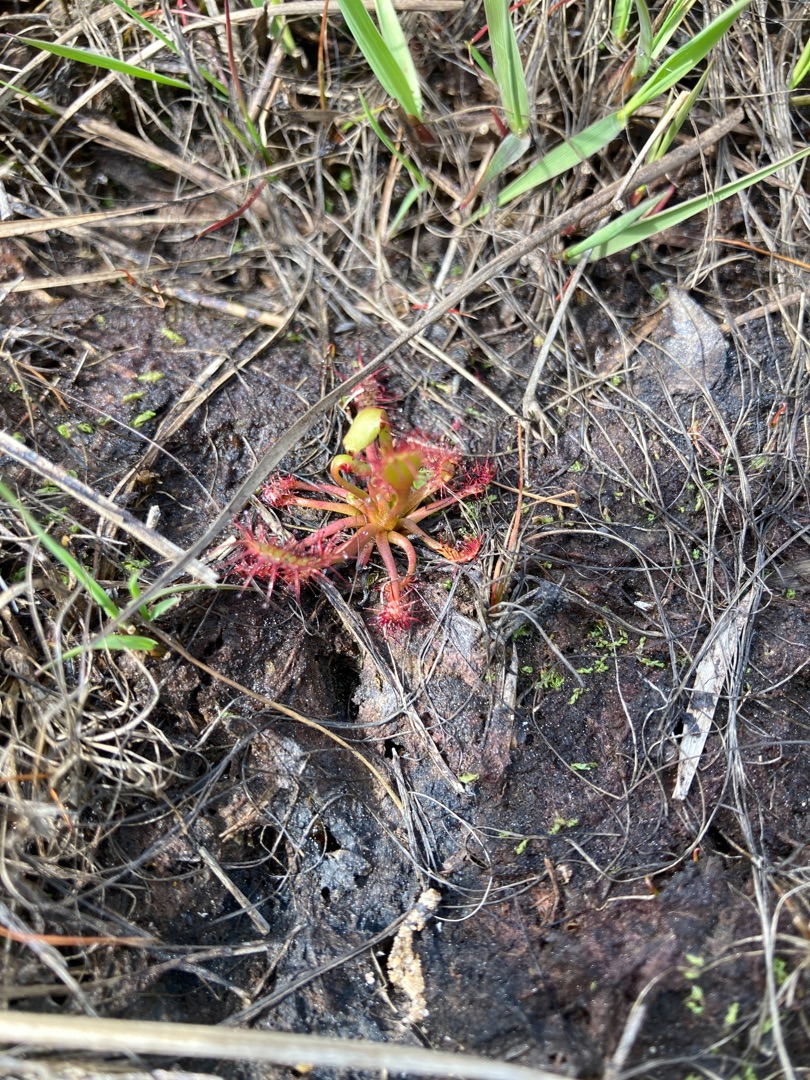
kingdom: Plantae
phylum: Tracheophyta
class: Magnoliopsida
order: Caryophyllales
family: Droseraceae
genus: Drosera
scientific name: Drosera intermedia
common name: Liden soldug
